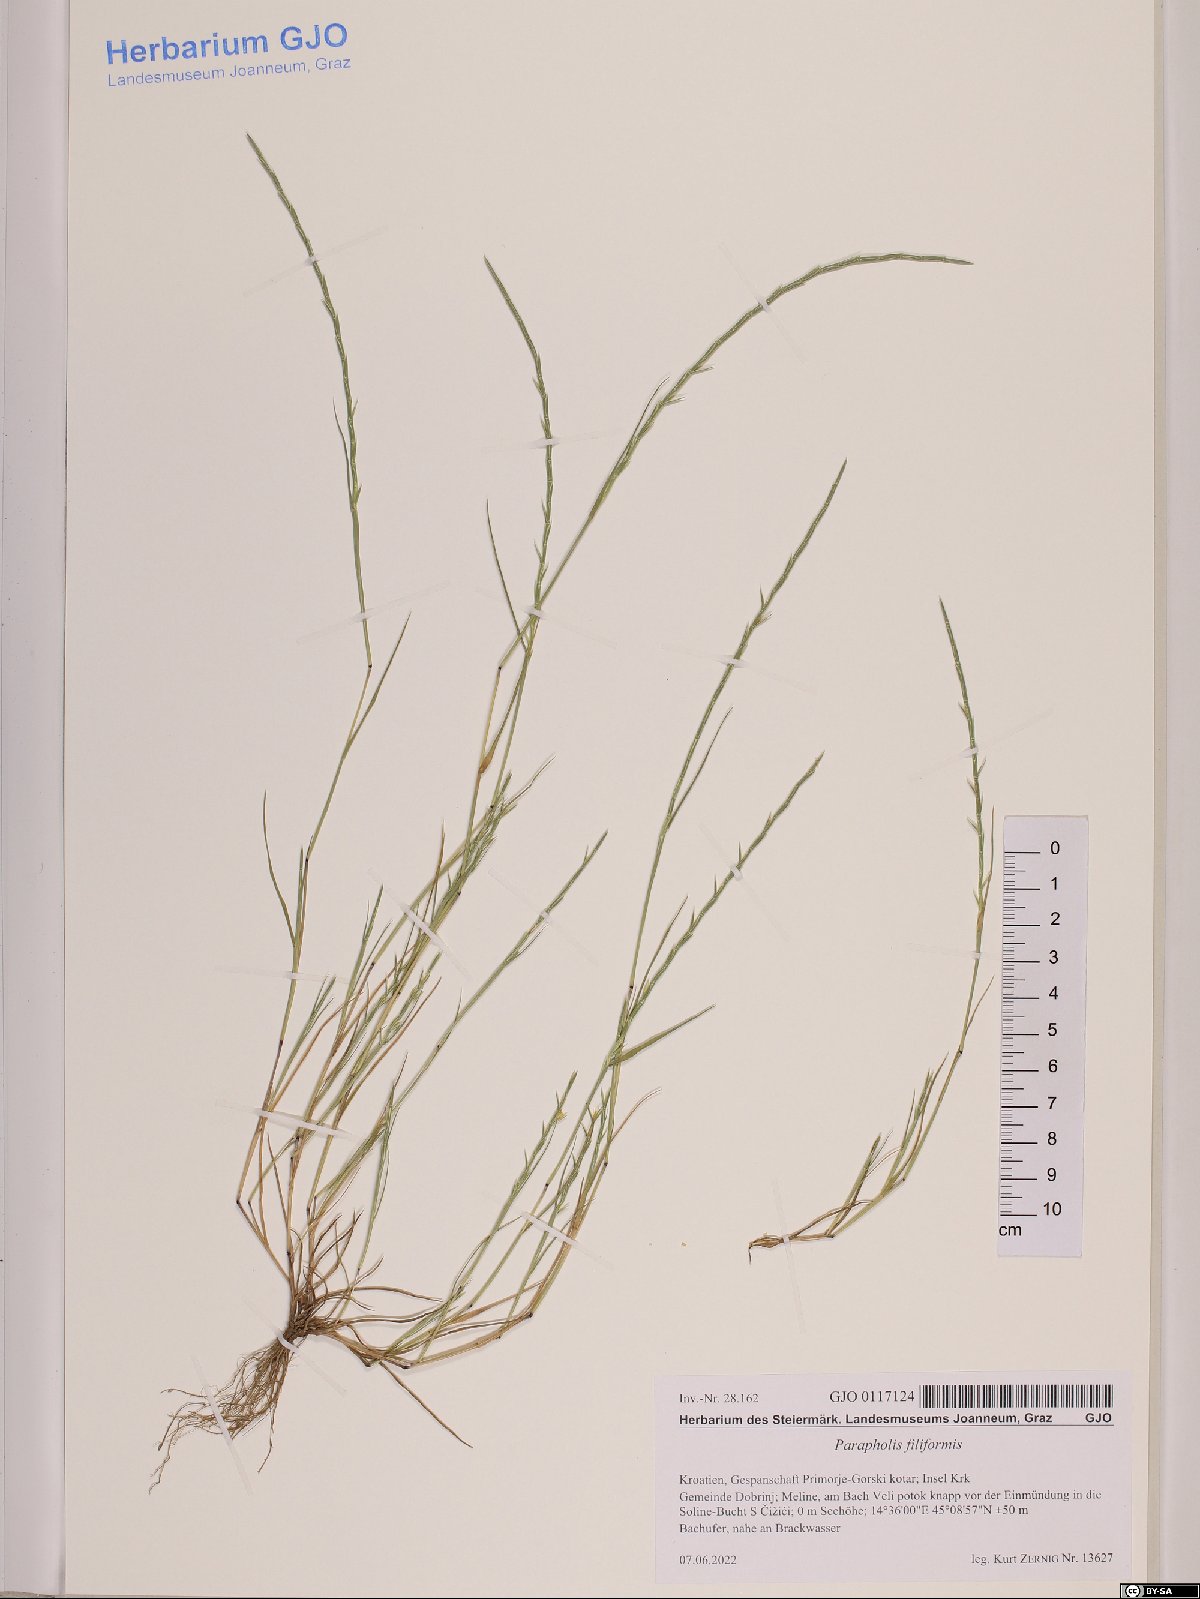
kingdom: Plantae
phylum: Tracheophyta
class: Liliopsida
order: Poales
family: Poaceae
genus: Parapholis
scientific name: Parapholis filiformis
